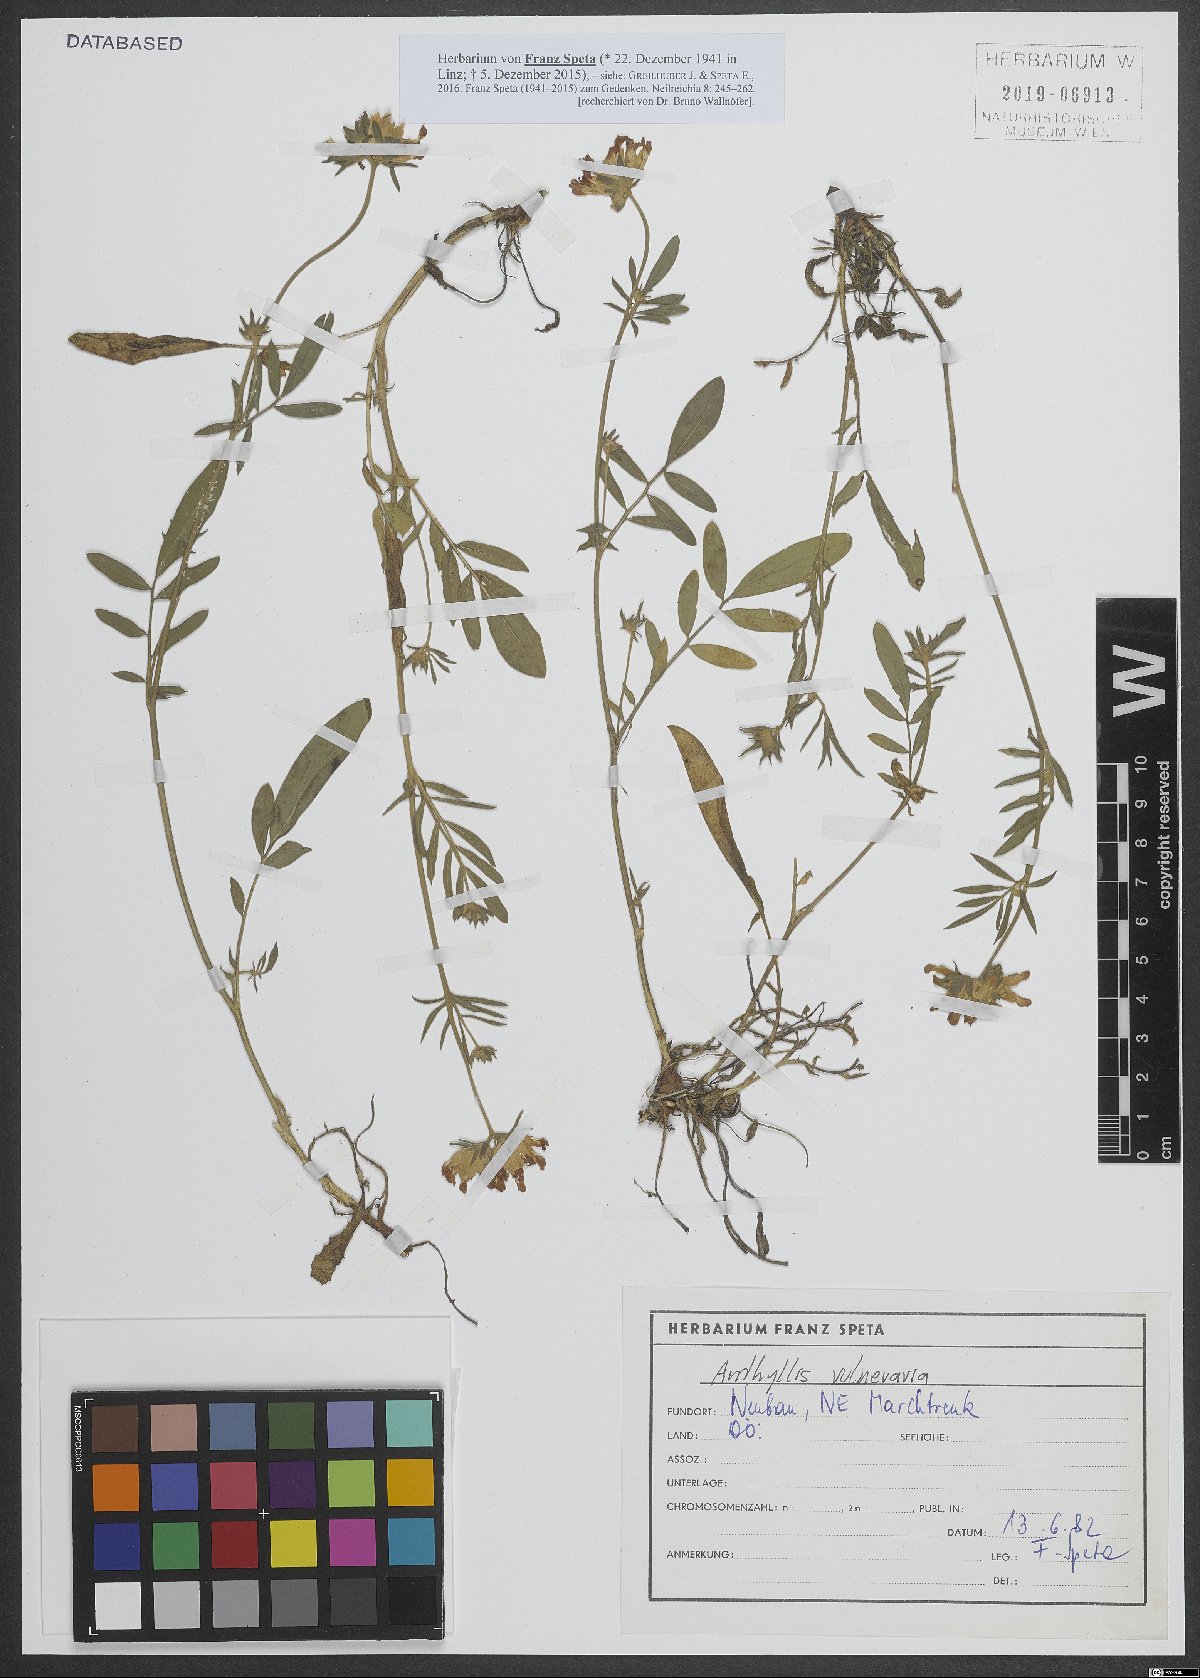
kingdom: Plantae
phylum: Tracheophyta
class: Magnoliopsida
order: Fabales
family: Fabaceae
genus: Anthyllis
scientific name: Anthyllis vulneraria
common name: Kidney vetch
